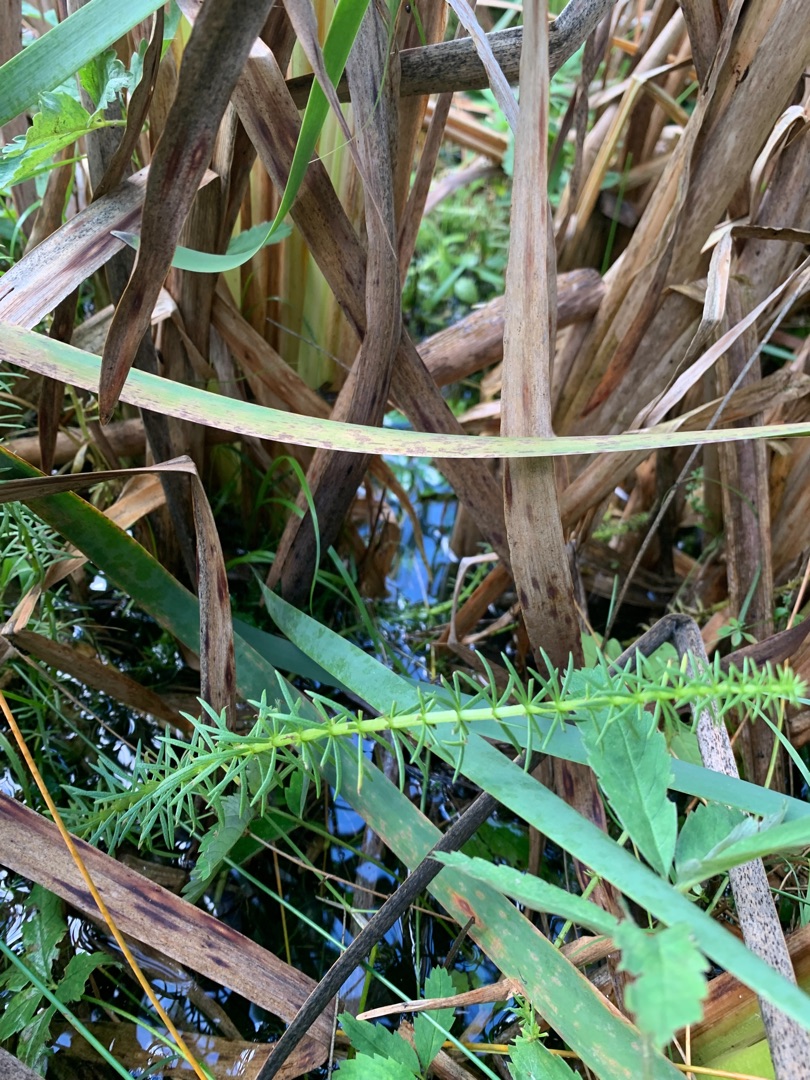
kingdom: Plantae
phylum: Tracheophyta
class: Magnoliopsida
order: Lamiales
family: Plantaginaceae
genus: Hippuris
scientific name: Hippuris vulgaris
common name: Vandspir
